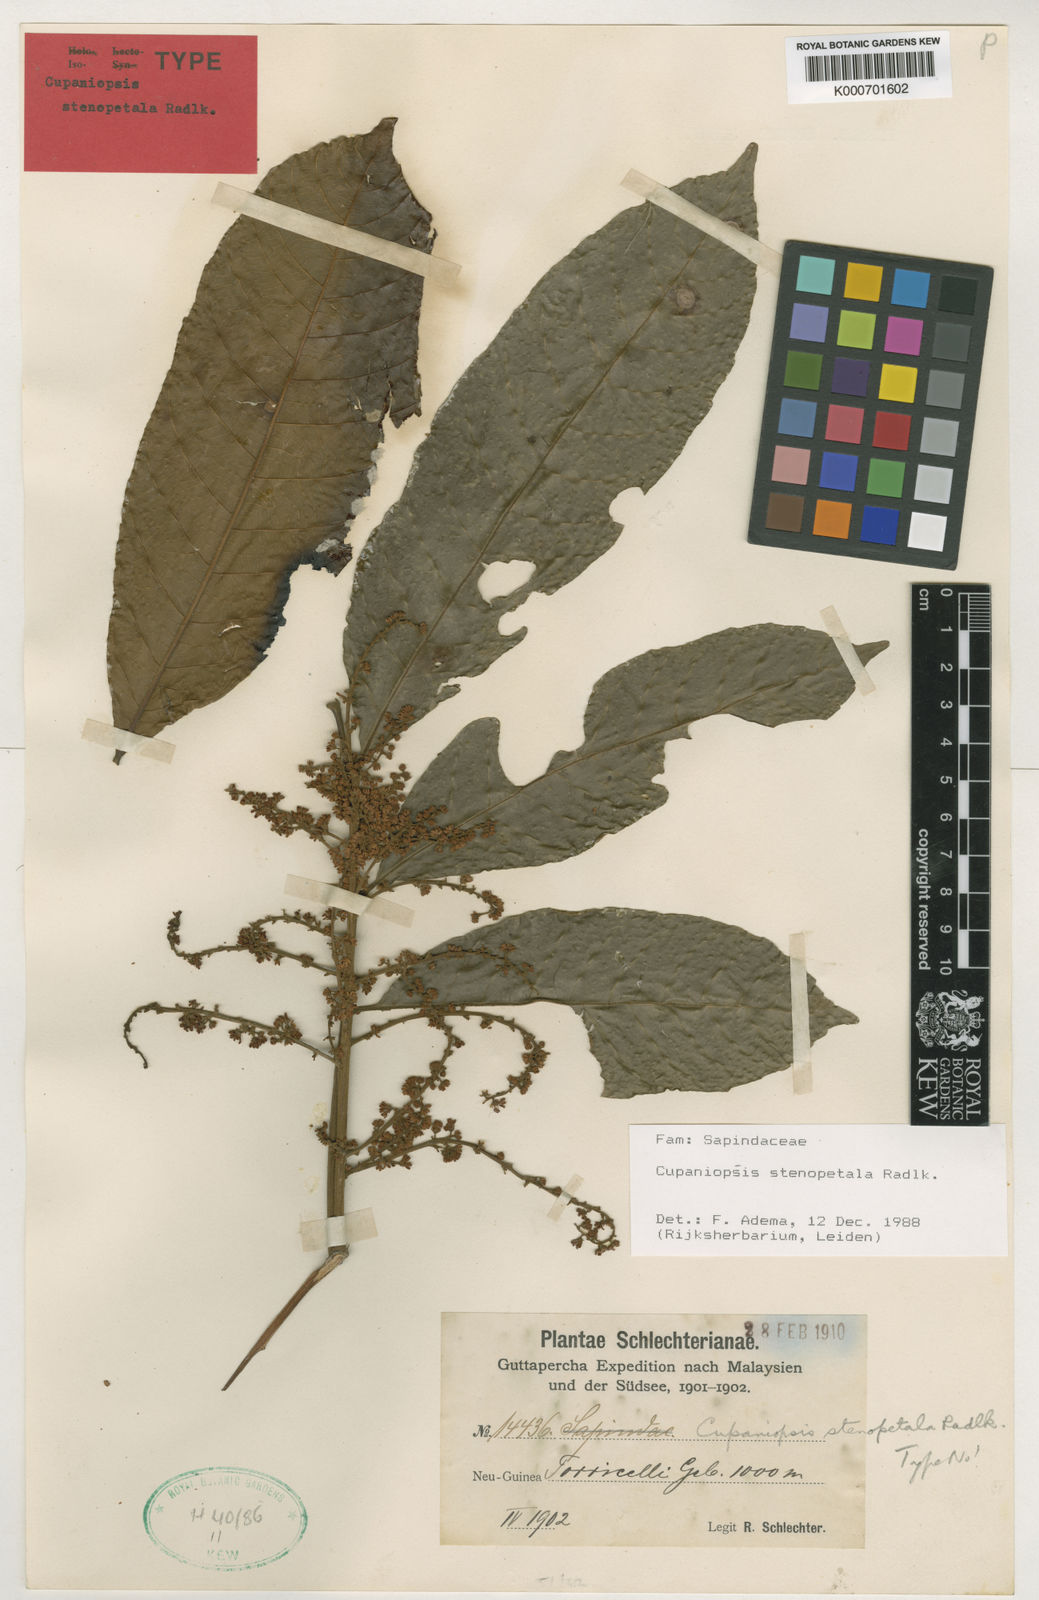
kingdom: Plantae
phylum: Tracheophyta
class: Magnoliopsida
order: Sapindales
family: Sapindaceae
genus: Cupaniopsis
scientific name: Cupaniopsis stenopetala
